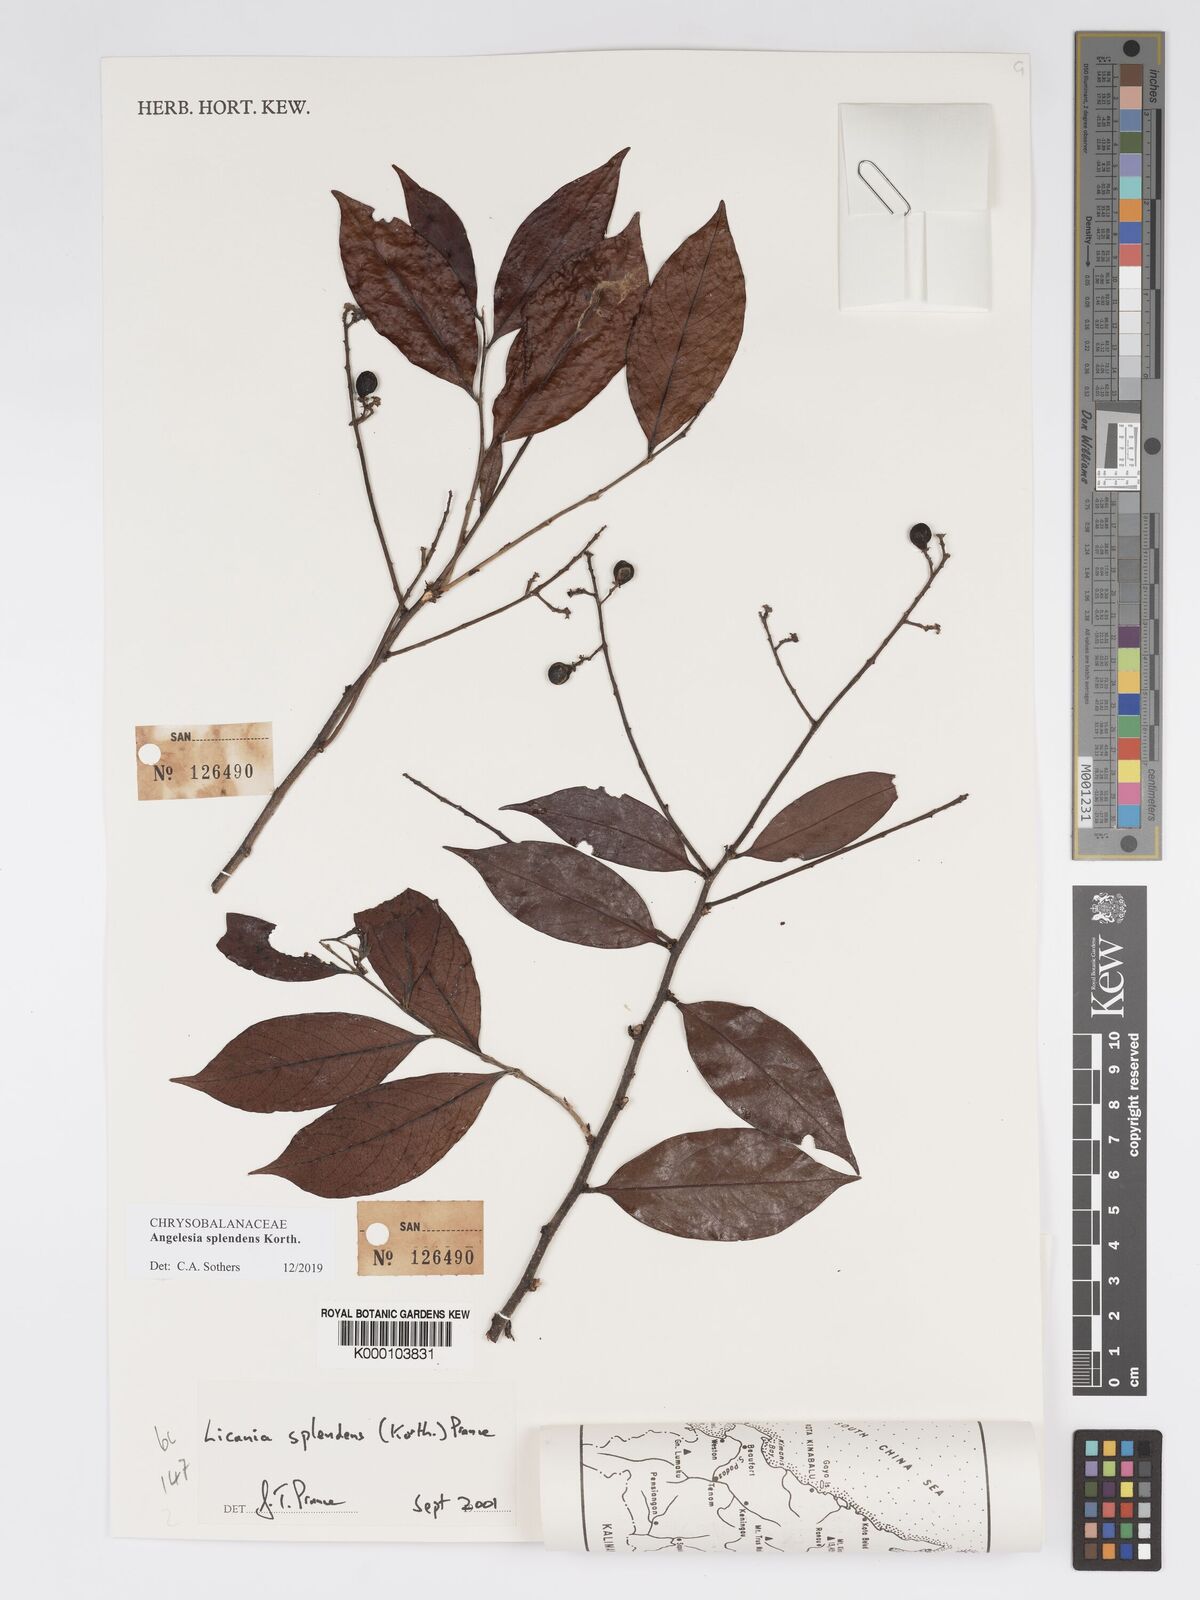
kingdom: Plantae
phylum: Tracheophyta
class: Magnoliopsida
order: Malpighiales
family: Chrysobalanaceae
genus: Angelesia
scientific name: Angelesia splendens
